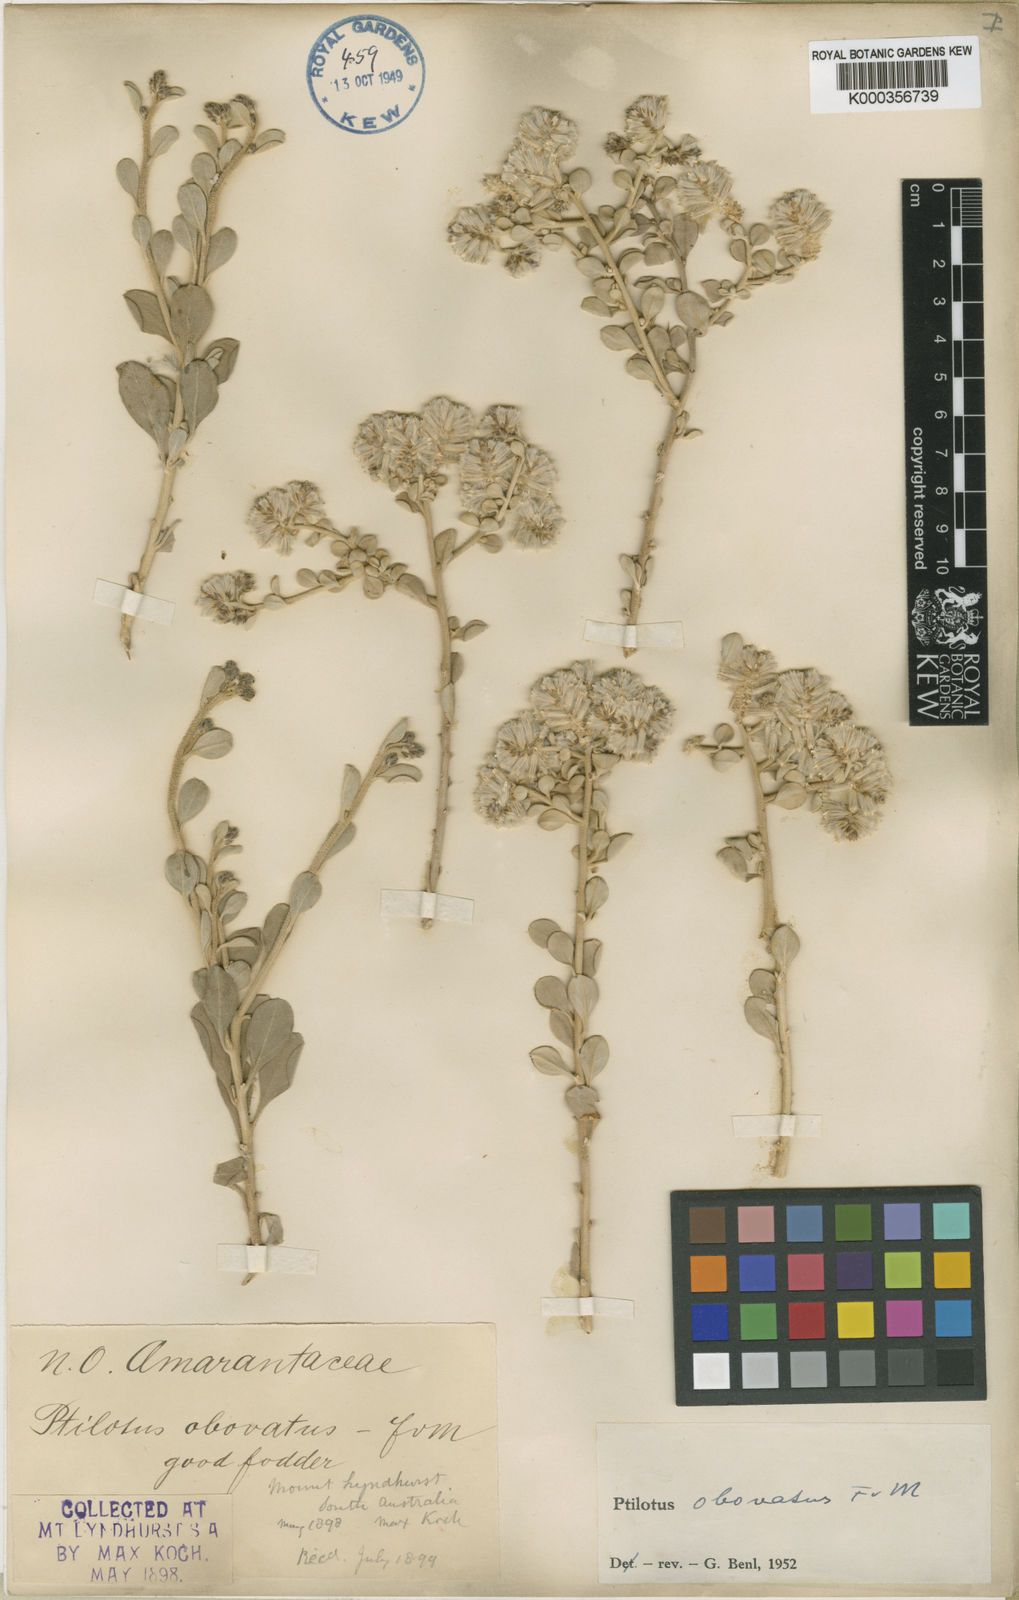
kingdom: Plantae
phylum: Tracheophyta
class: Magnoliopsida
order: Caryophyllales
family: Amaranthaceae
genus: Ptilotus
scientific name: Ptilotus obovatus
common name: Cottonbush
